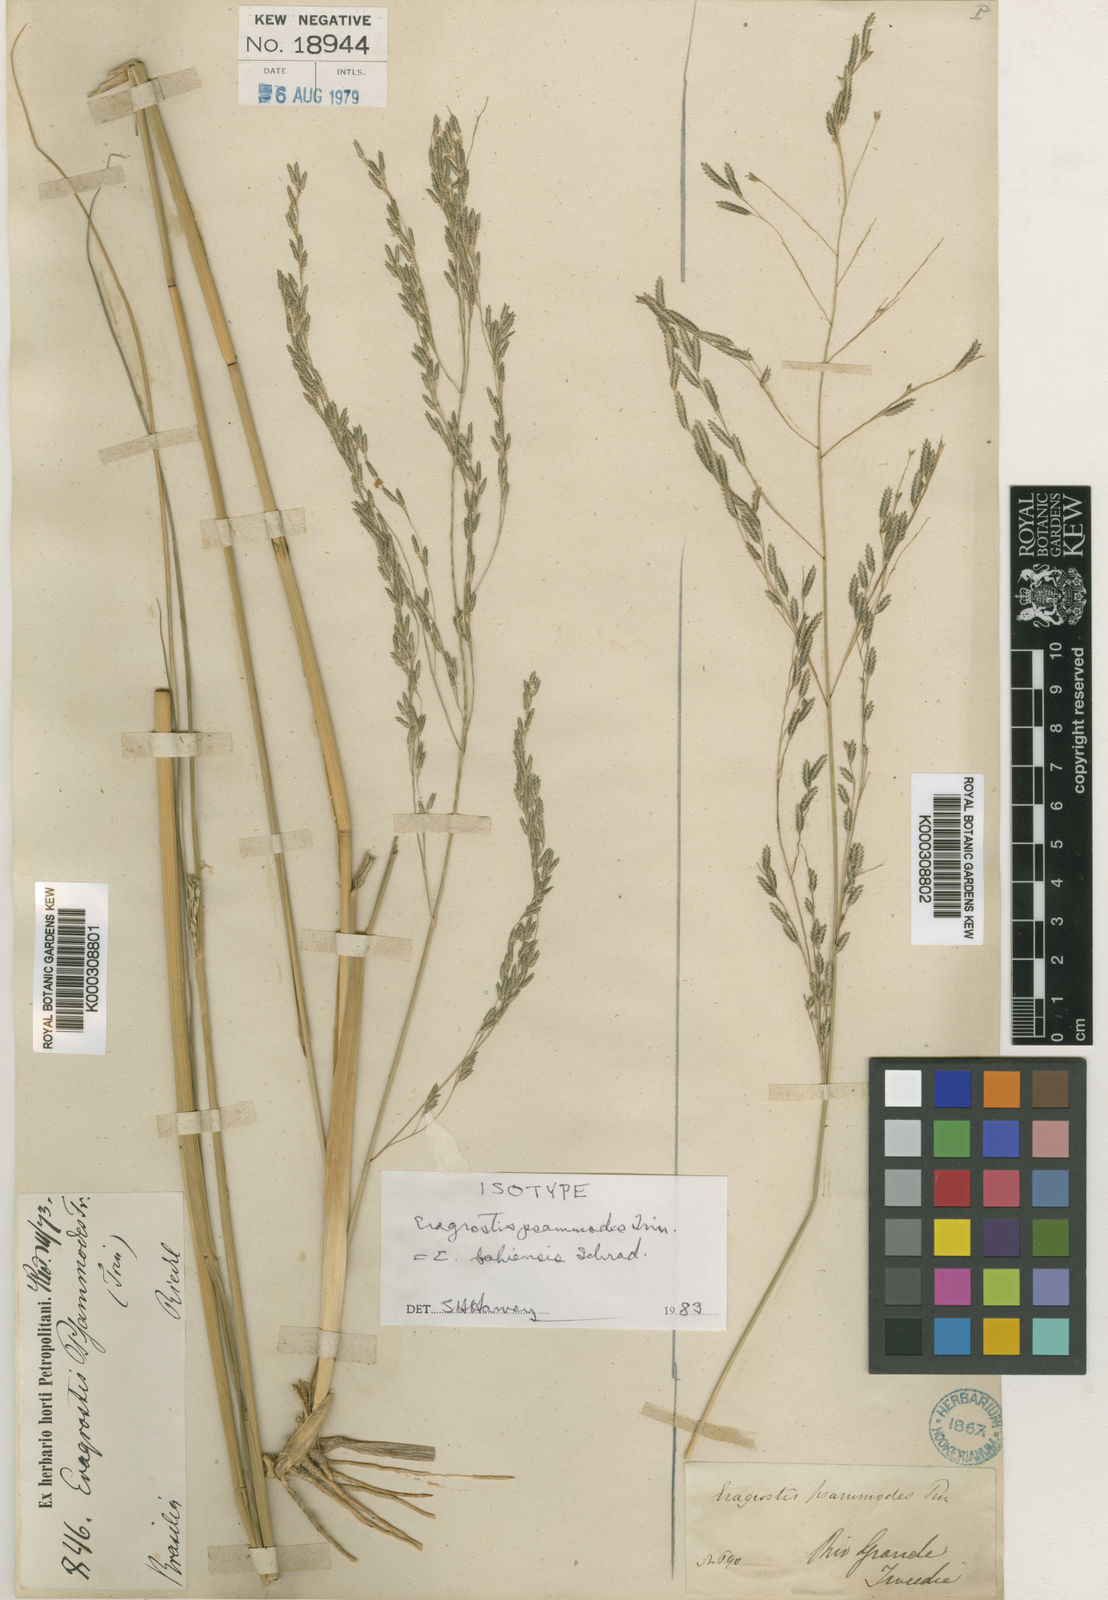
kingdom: Plantae
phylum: Tracheophyta
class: Liliopsida
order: Poales
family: Poaceae
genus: Eragrostis
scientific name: Eragrostis bahiensis
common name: Bahia lovegrass
